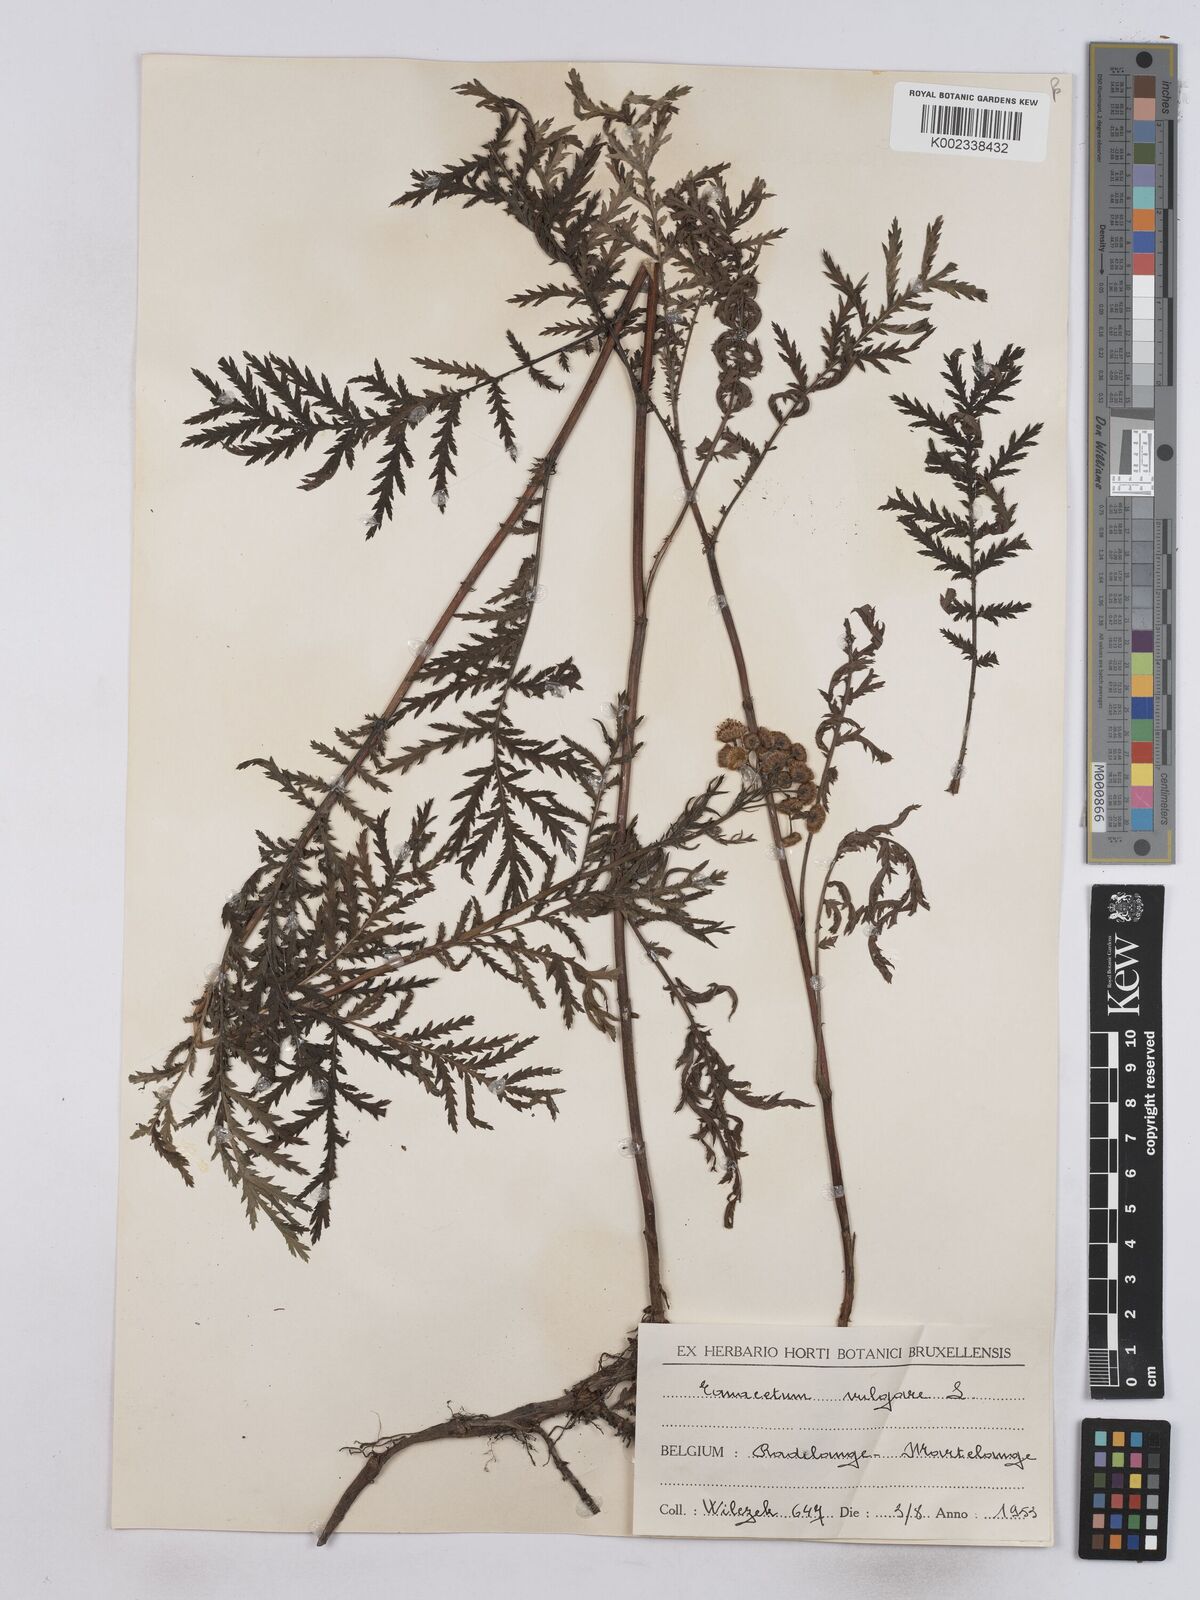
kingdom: Plantae
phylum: Tracheophyta
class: Magnoliopsida
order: Asterales
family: Asteraceae
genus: Tanacetum
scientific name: Tanacetum vulgare
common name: Common tansy
